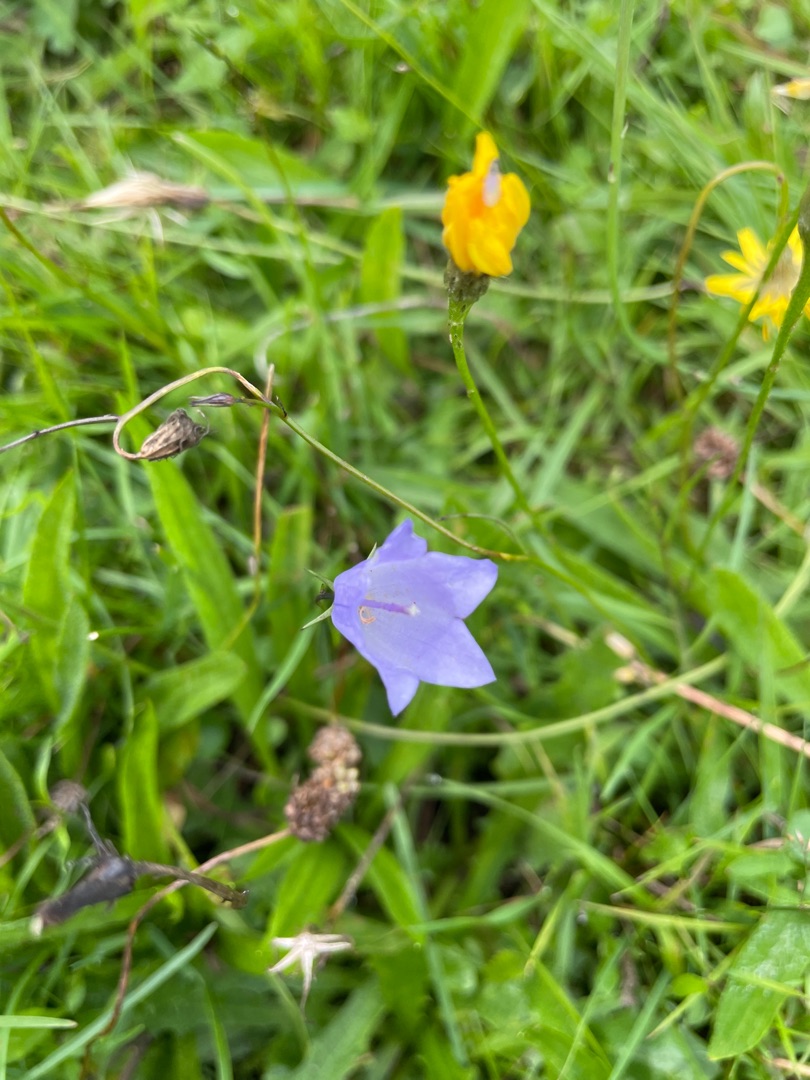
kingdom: Plantae
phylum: Tracheophyta
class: Magnoliopsida
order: Asterales
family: Campanulaceae
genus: Campanula
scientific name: Campanula rotundifolia
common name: Liden klokke
